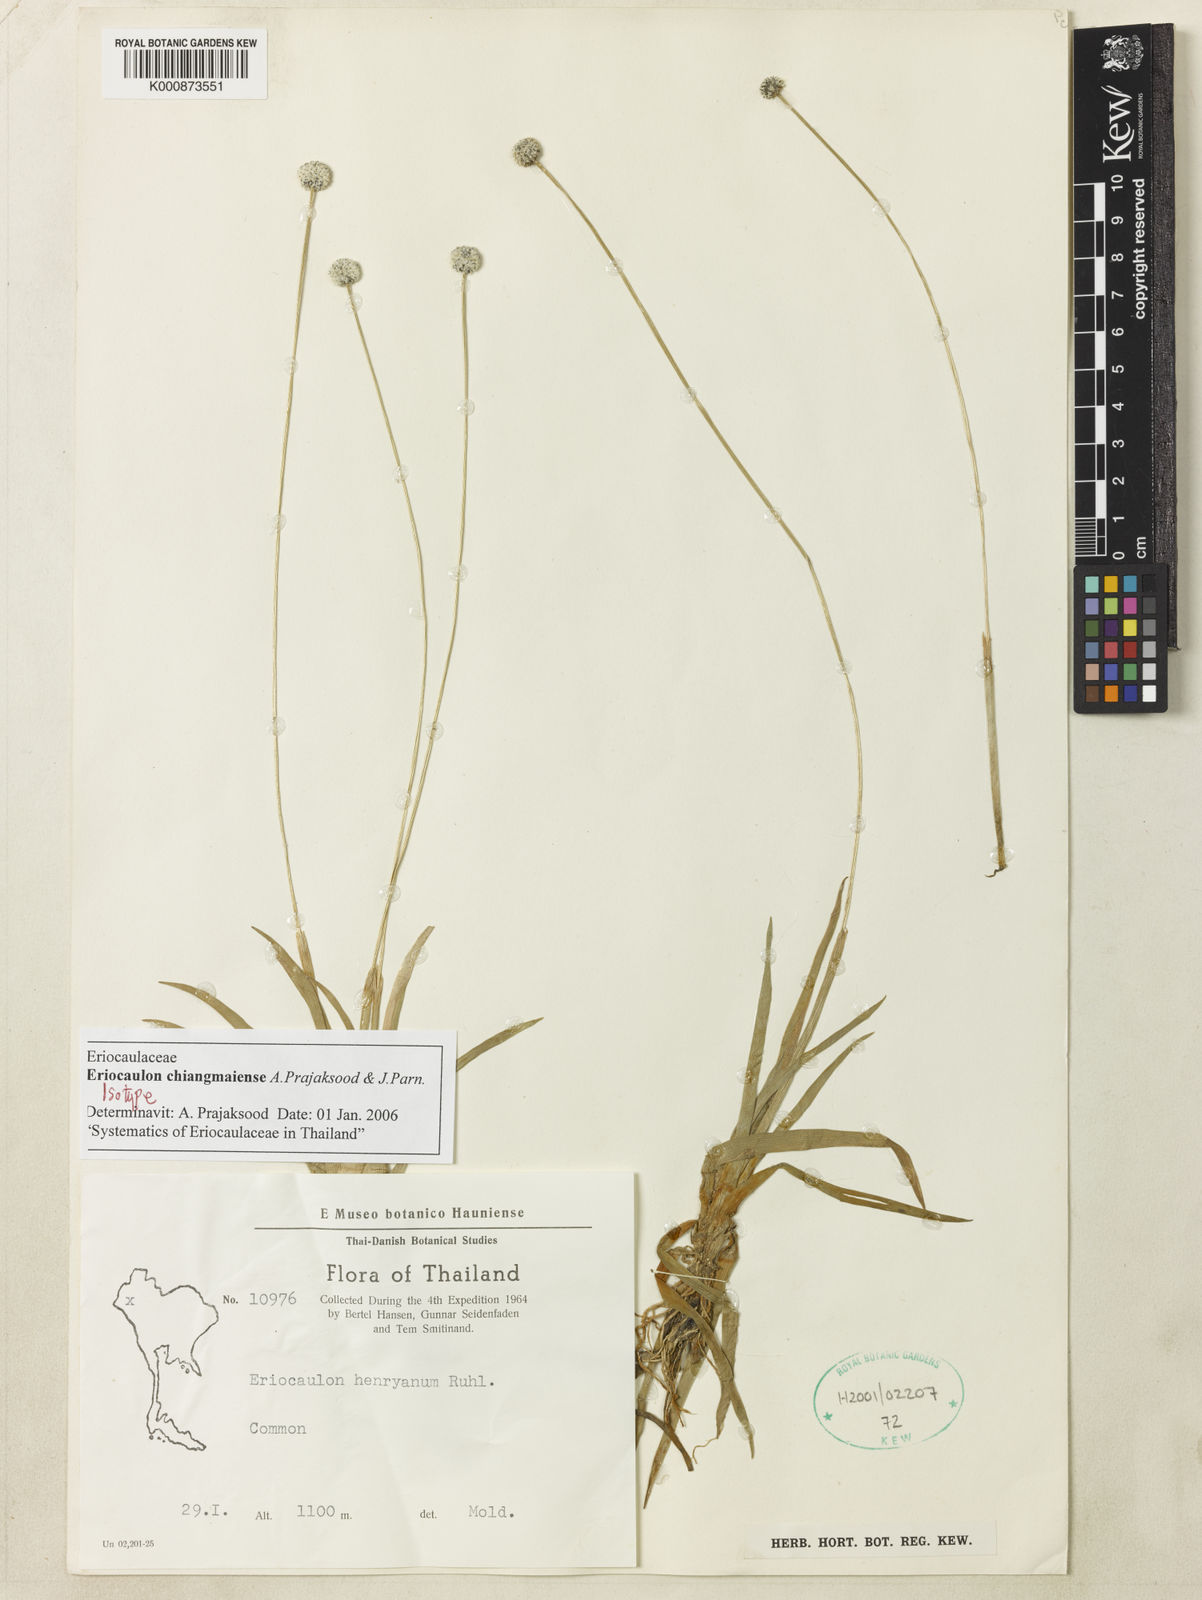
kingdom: Plantae
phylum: Tracheophyta
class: Liliopsida
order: Poales
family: Eriocaulaceae
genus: Eriocaulon
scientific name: Eriocaulon chiangmaiense
